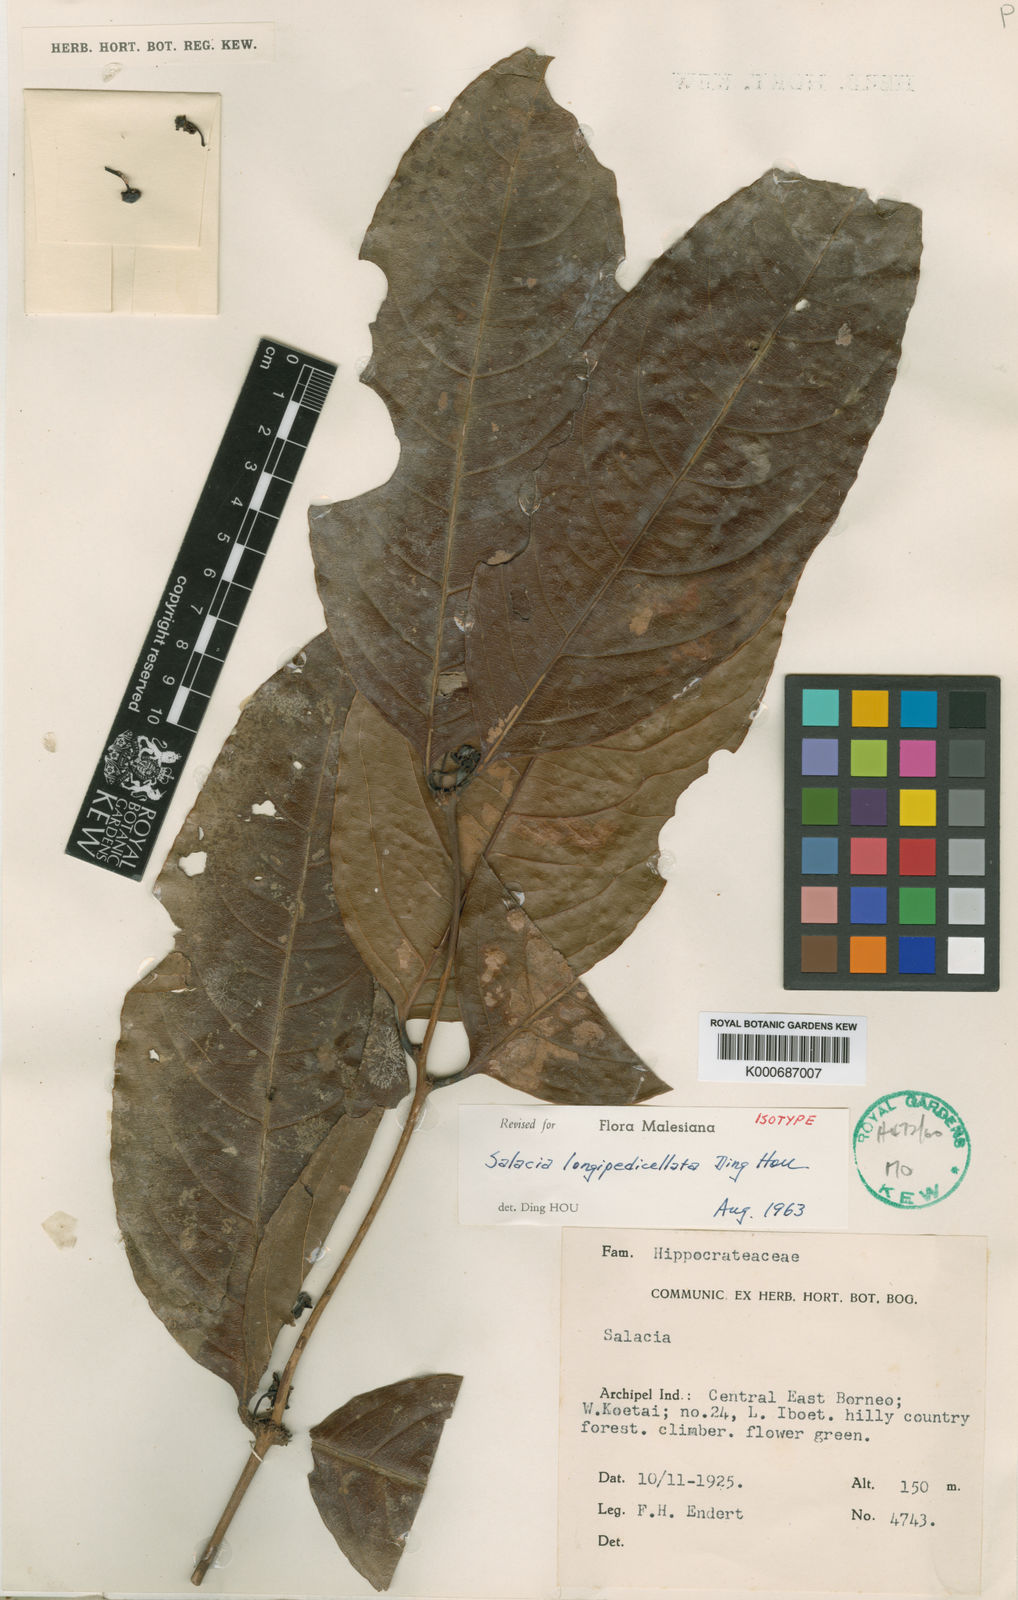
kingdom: Plantae
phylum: Tracheophyta
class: Magnoliopsida
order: Celastrales
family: Celastraceae
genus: Salacia
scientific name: Salacia longipedicellata
